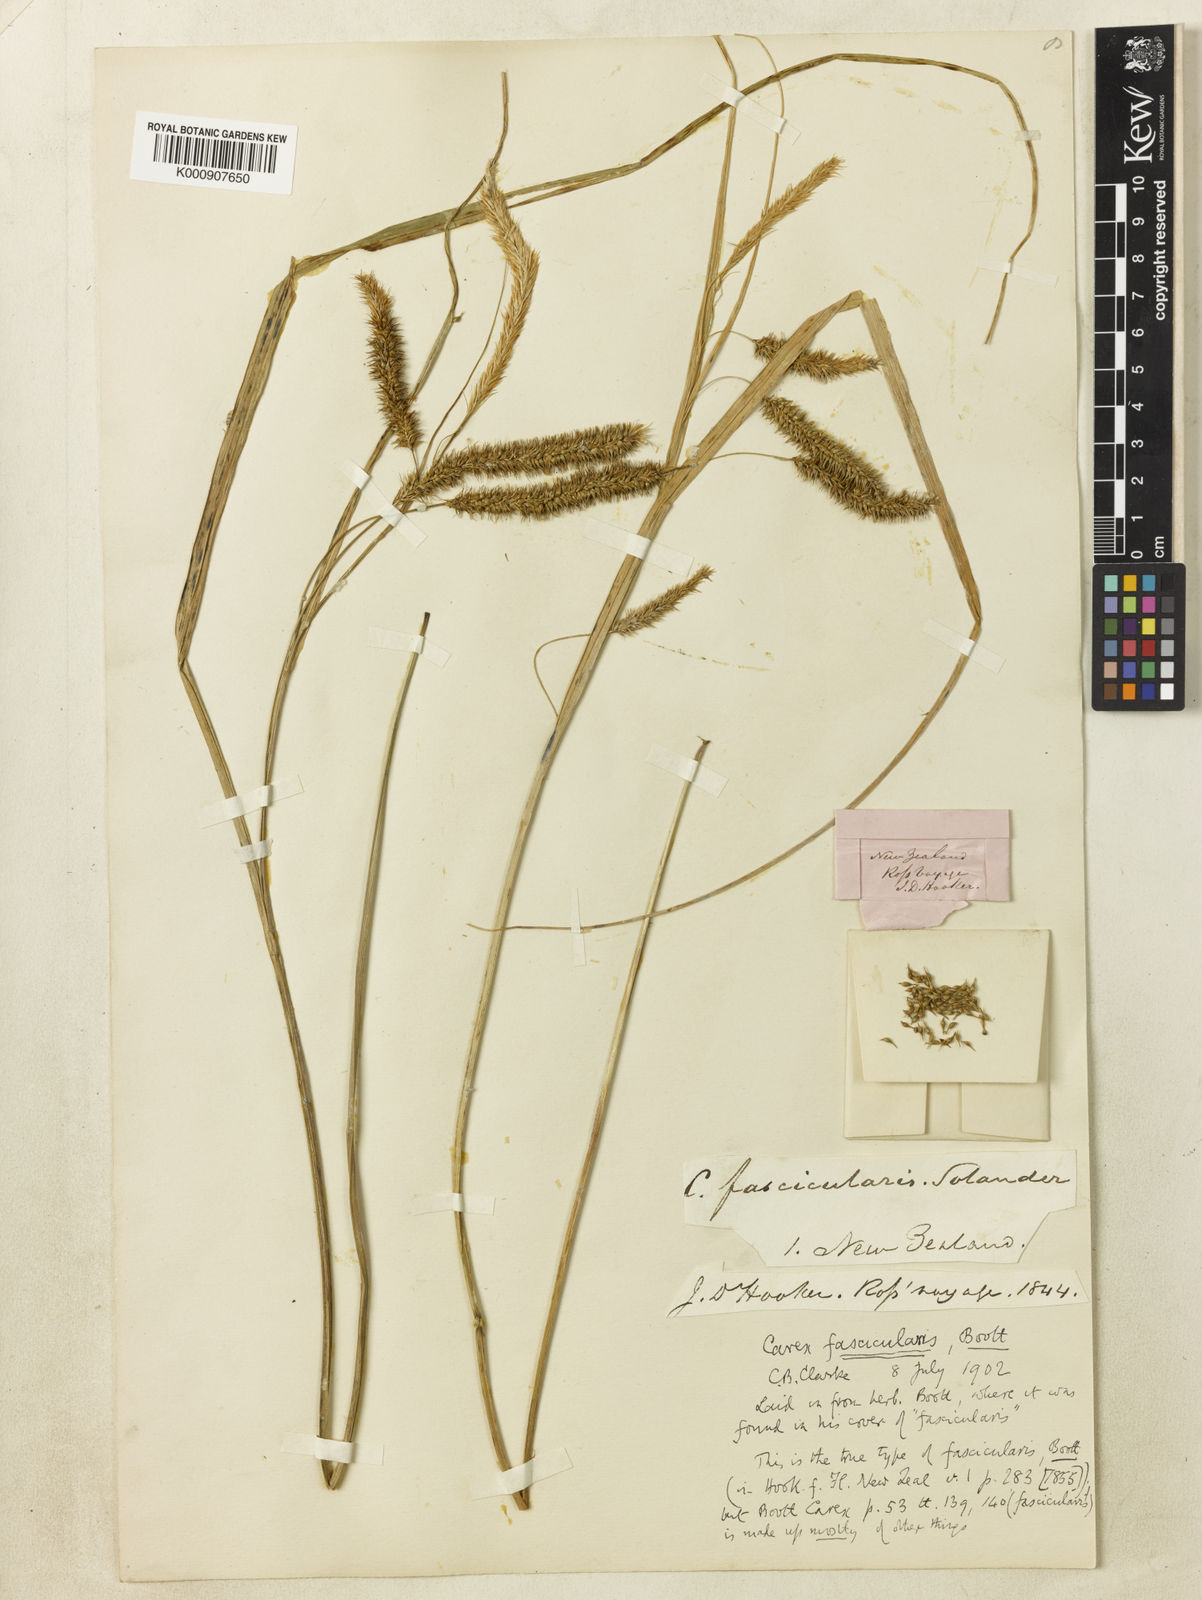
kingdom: Plantae
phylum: Tracheophyta
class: Liliopsida
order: Poales
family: Cyperaceae
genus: Carex
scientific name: Carex fascicularis
